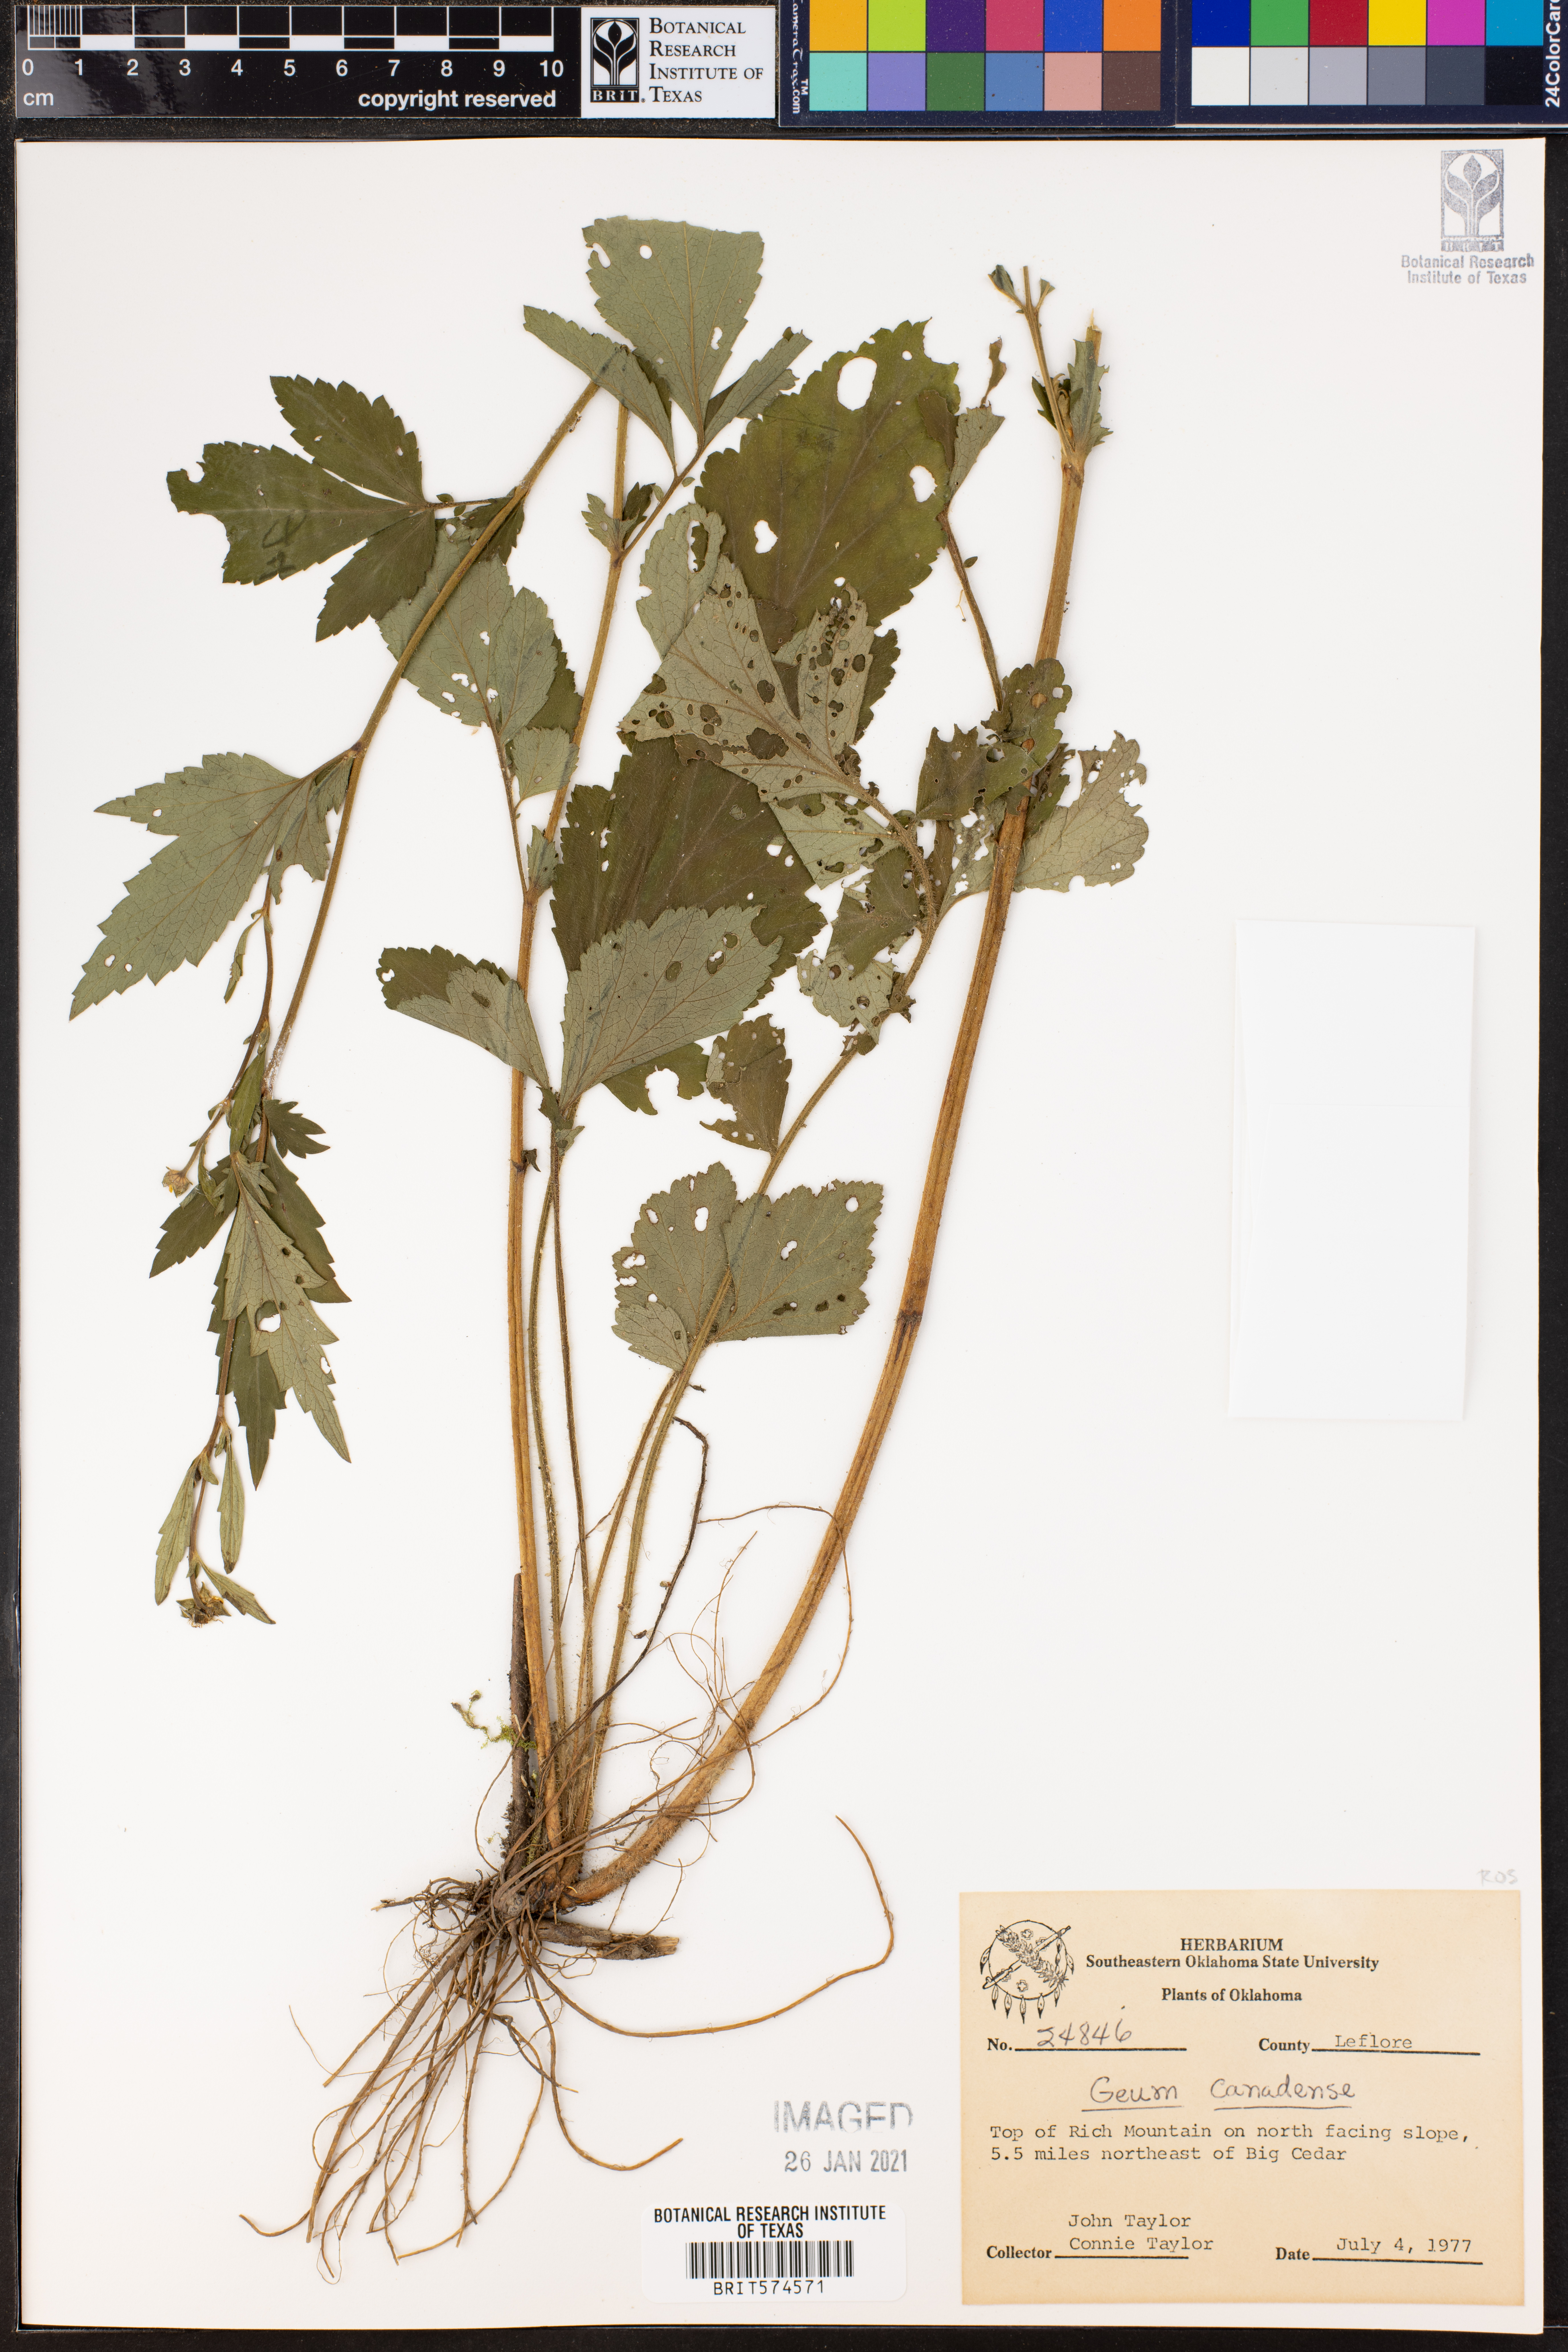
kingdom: Plantae
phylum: Tracheophyta
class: Magnoliopsida
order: Rosales
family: Rosaceae
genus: Geum
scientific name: Geum canadense
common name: White avens
